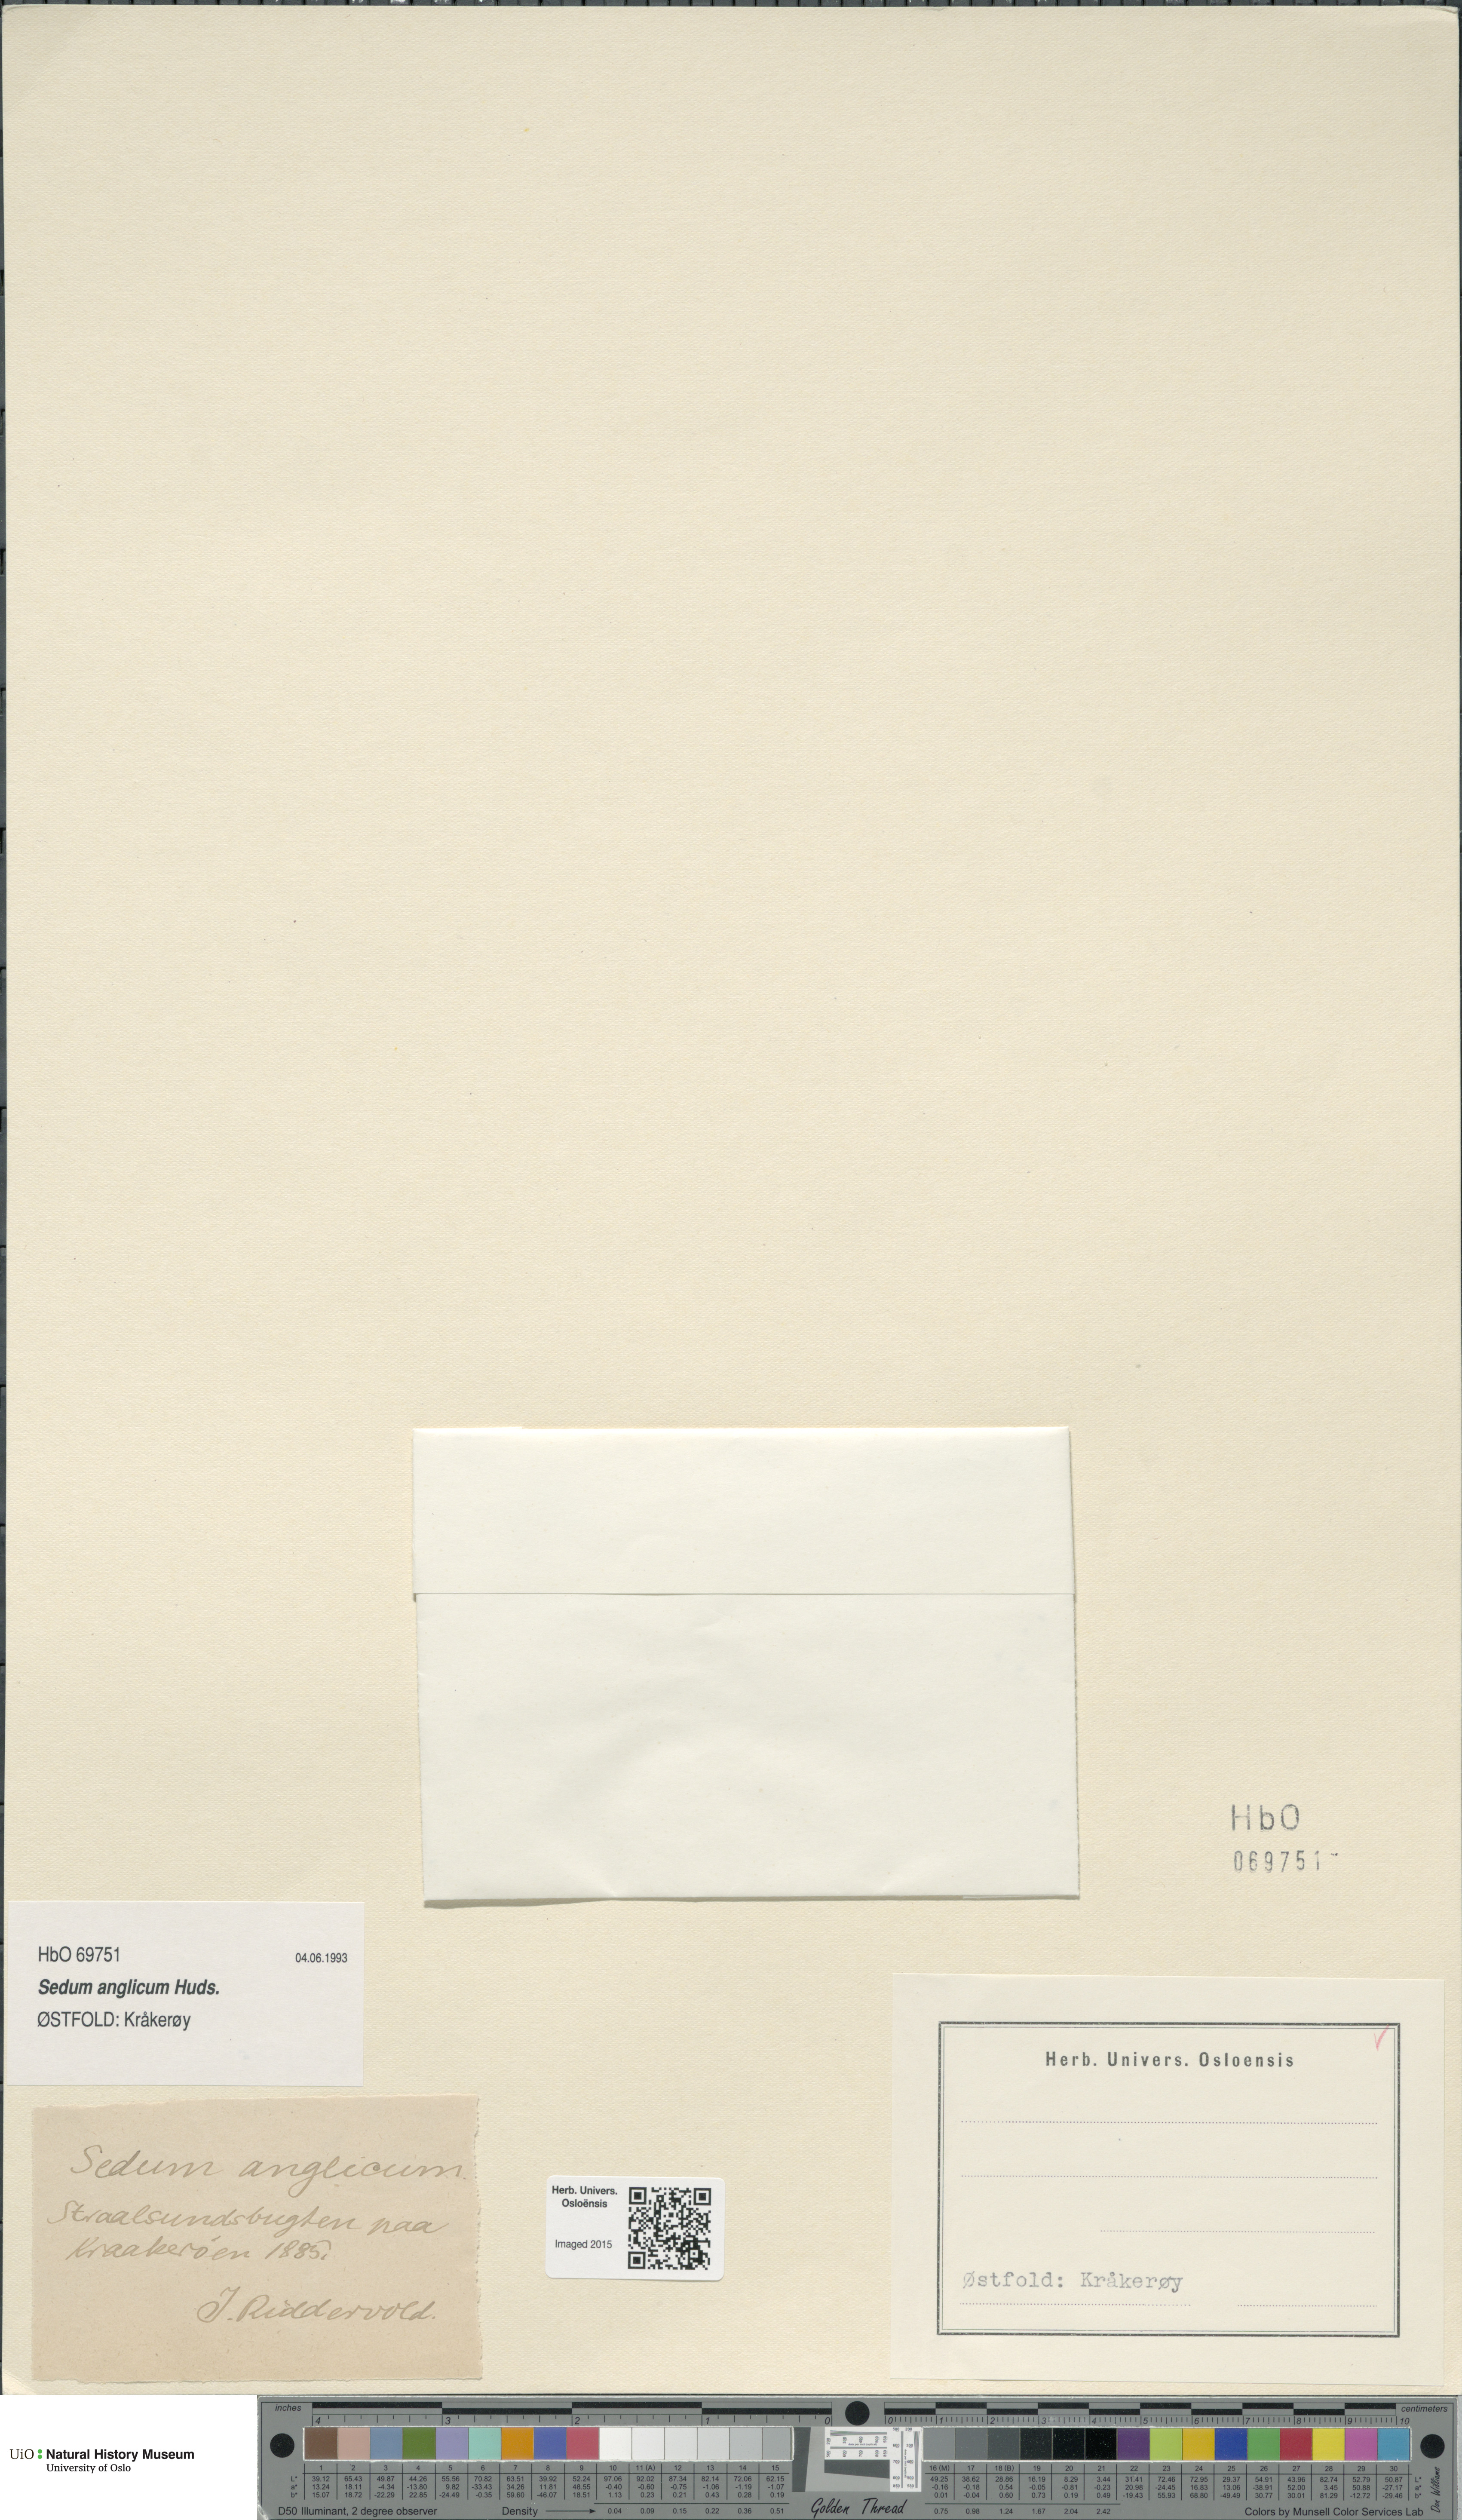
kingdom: Plantae
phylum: Tracheophyta
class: Magnoliopsida
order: Saxifragales
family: Crassulaceae
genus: Sedum
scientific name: Sedum anglicum
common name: English stonecrop
